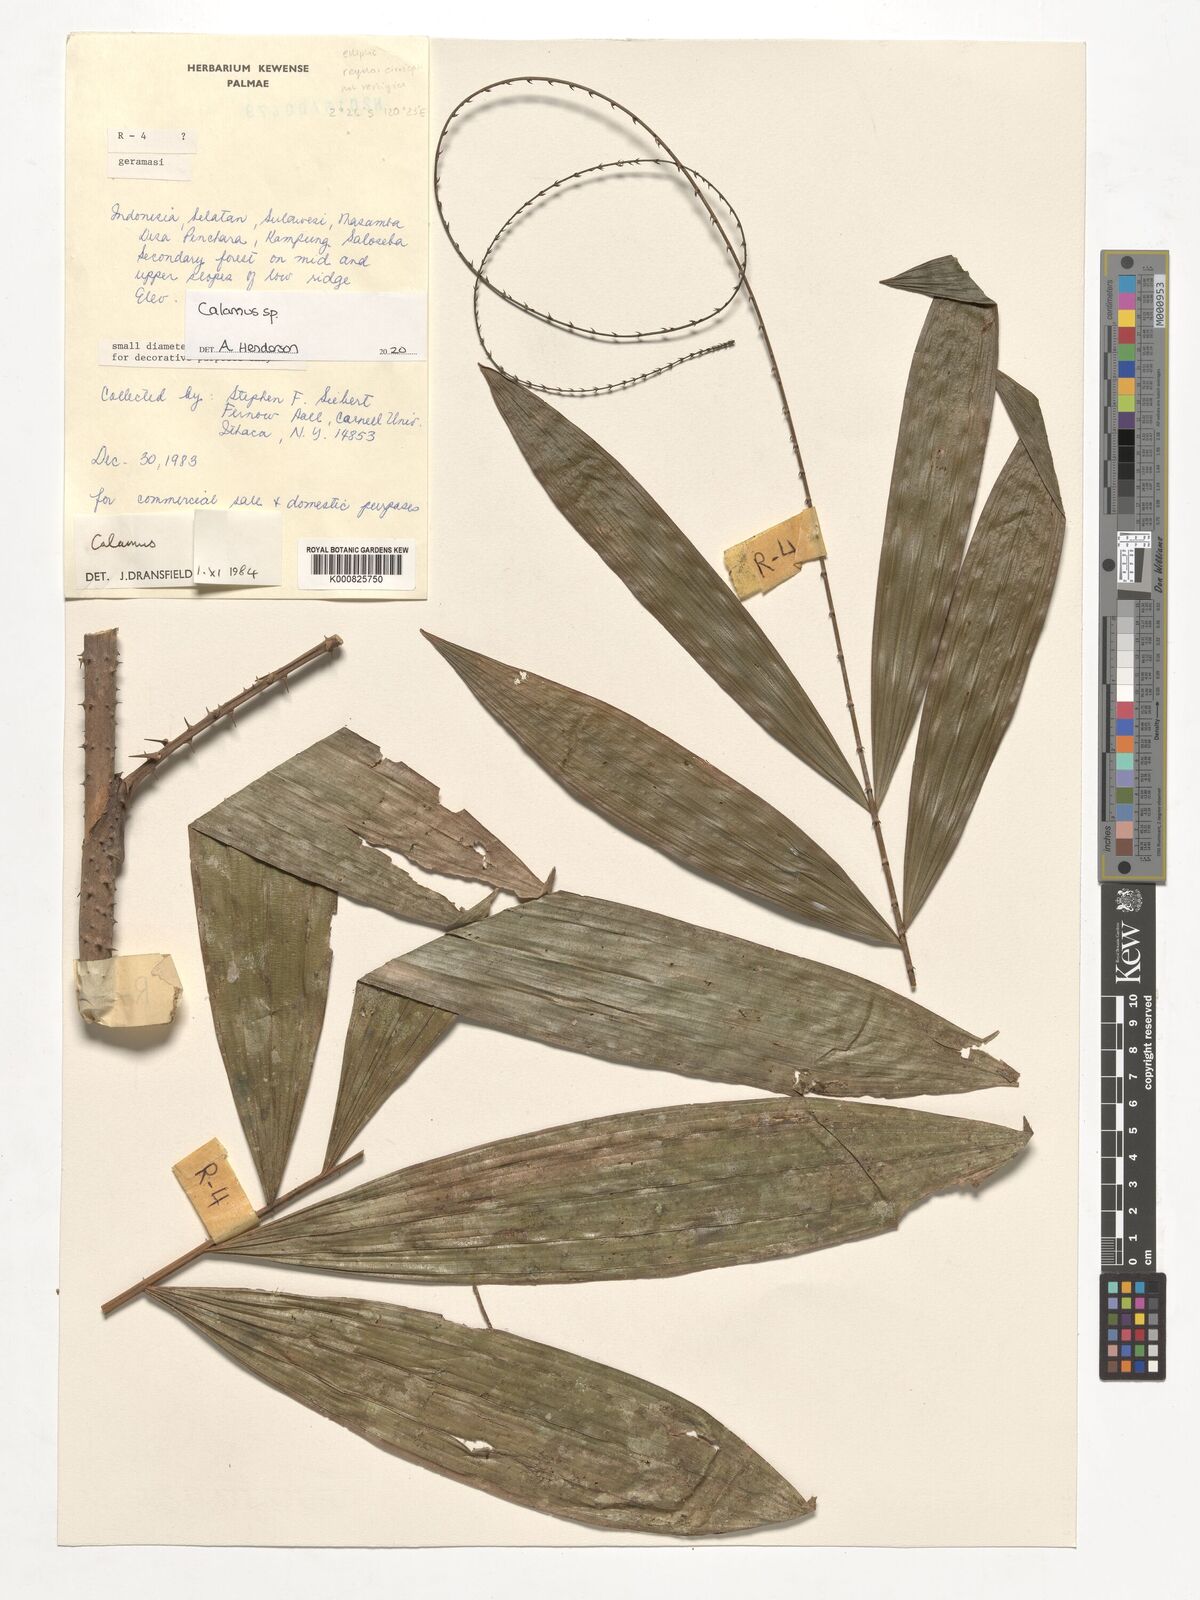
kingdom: Plantae
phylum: Tracheophyta
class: Liliopsida
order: Arecales
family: Arecaceae
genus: Calamus
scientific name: Calamus
